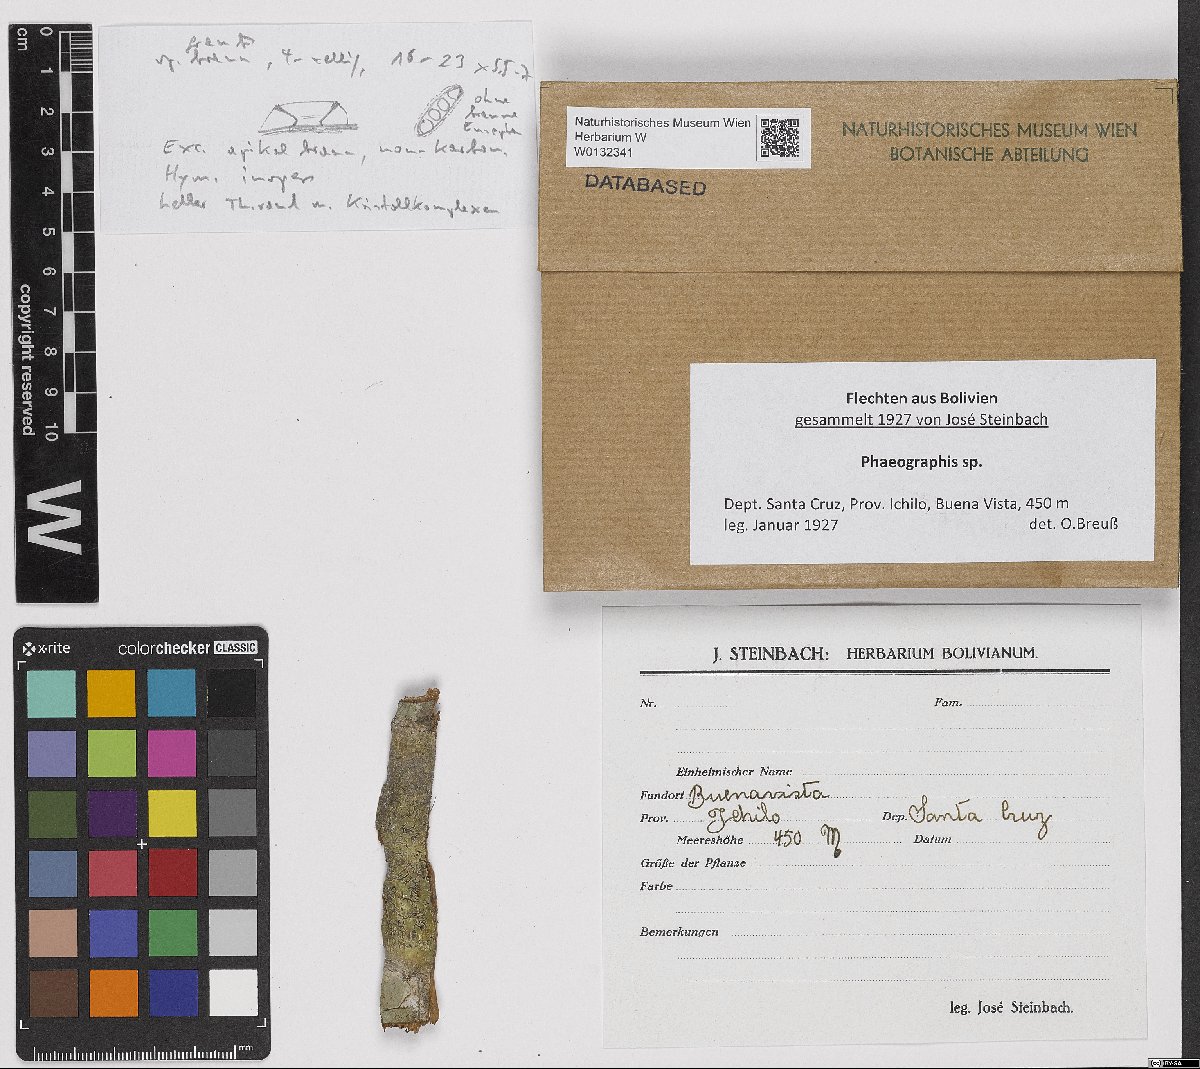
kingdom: Fungi
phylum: Ascomycota
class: Lecanoromycetes
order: Ostropales
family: Graphidaceae
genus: Phaeographis
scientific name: Phaeographis
